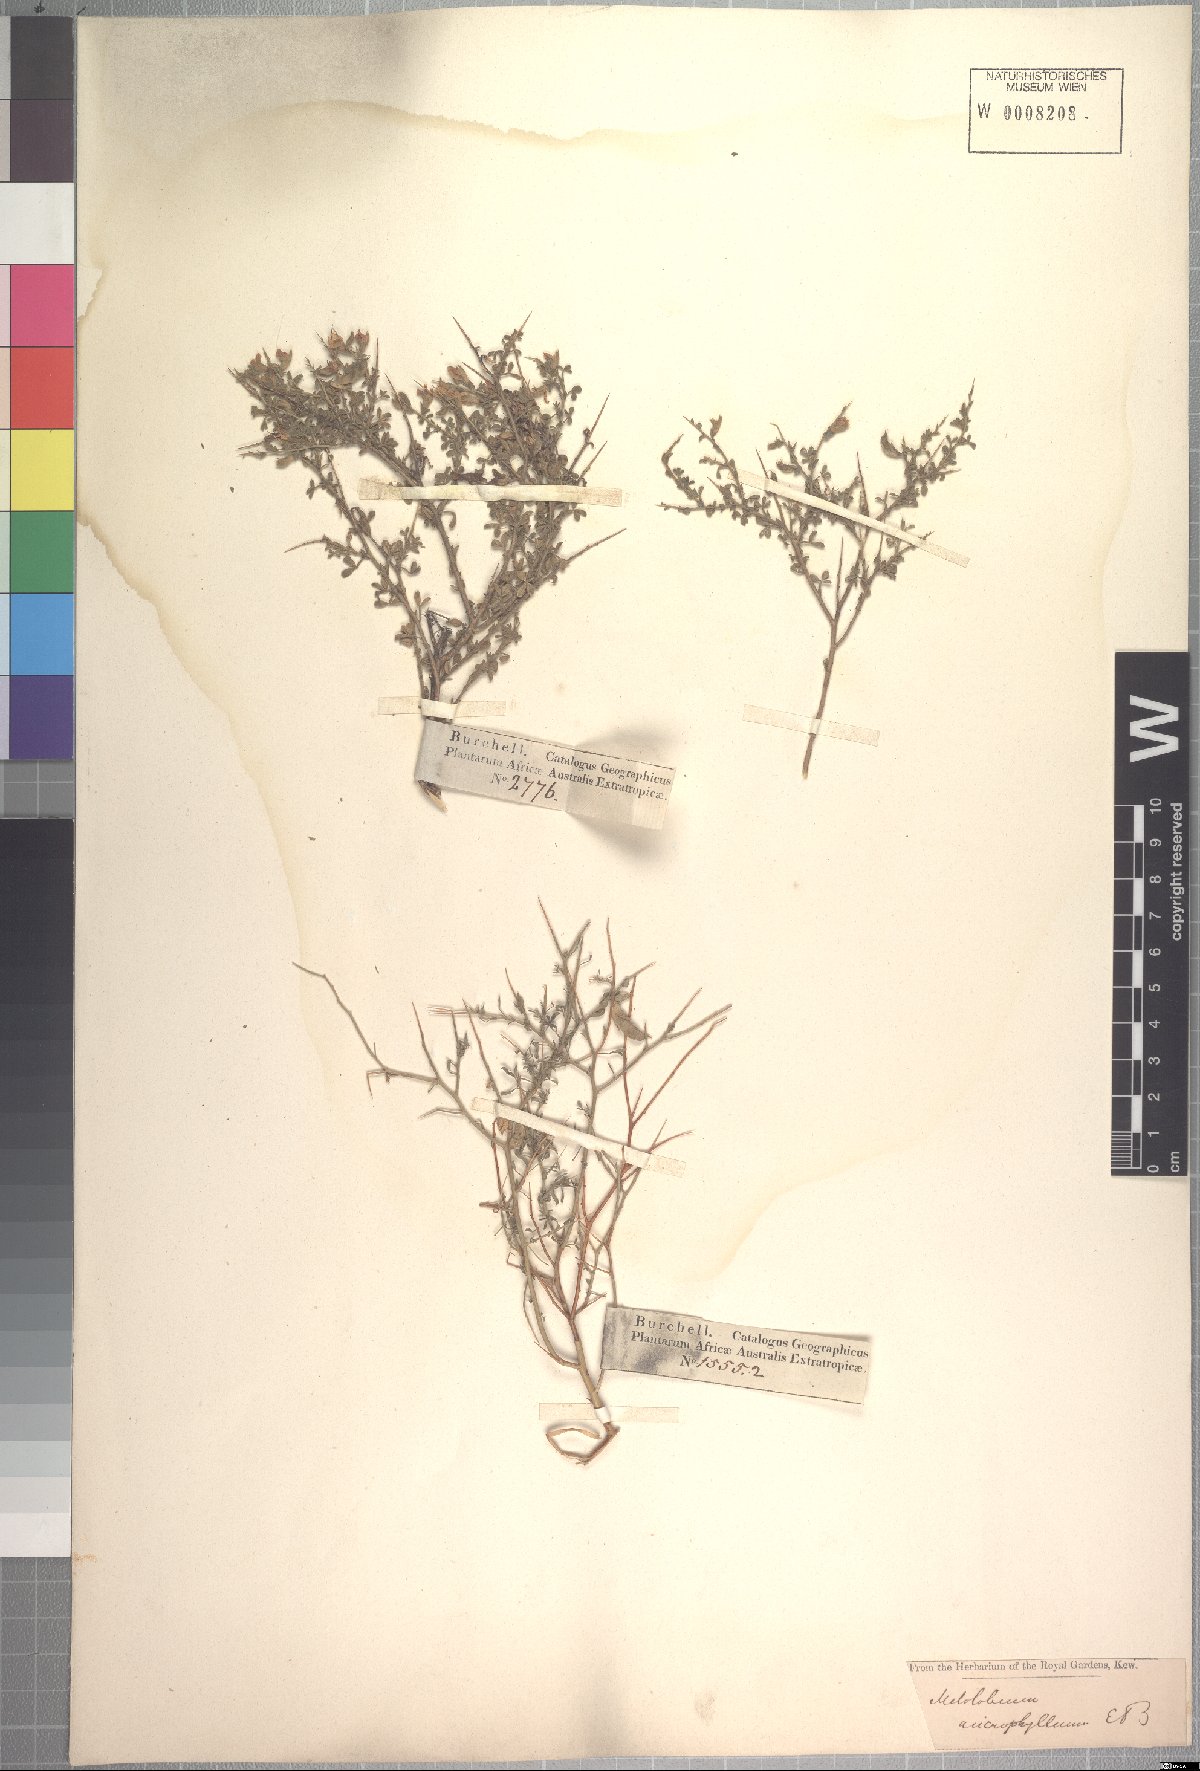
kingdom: Plantae
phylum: Tracheophyta
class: Magnoliopsida
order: Fabales
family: Fabaceae
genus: Melolobium
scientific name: Melolobium microphyllum
